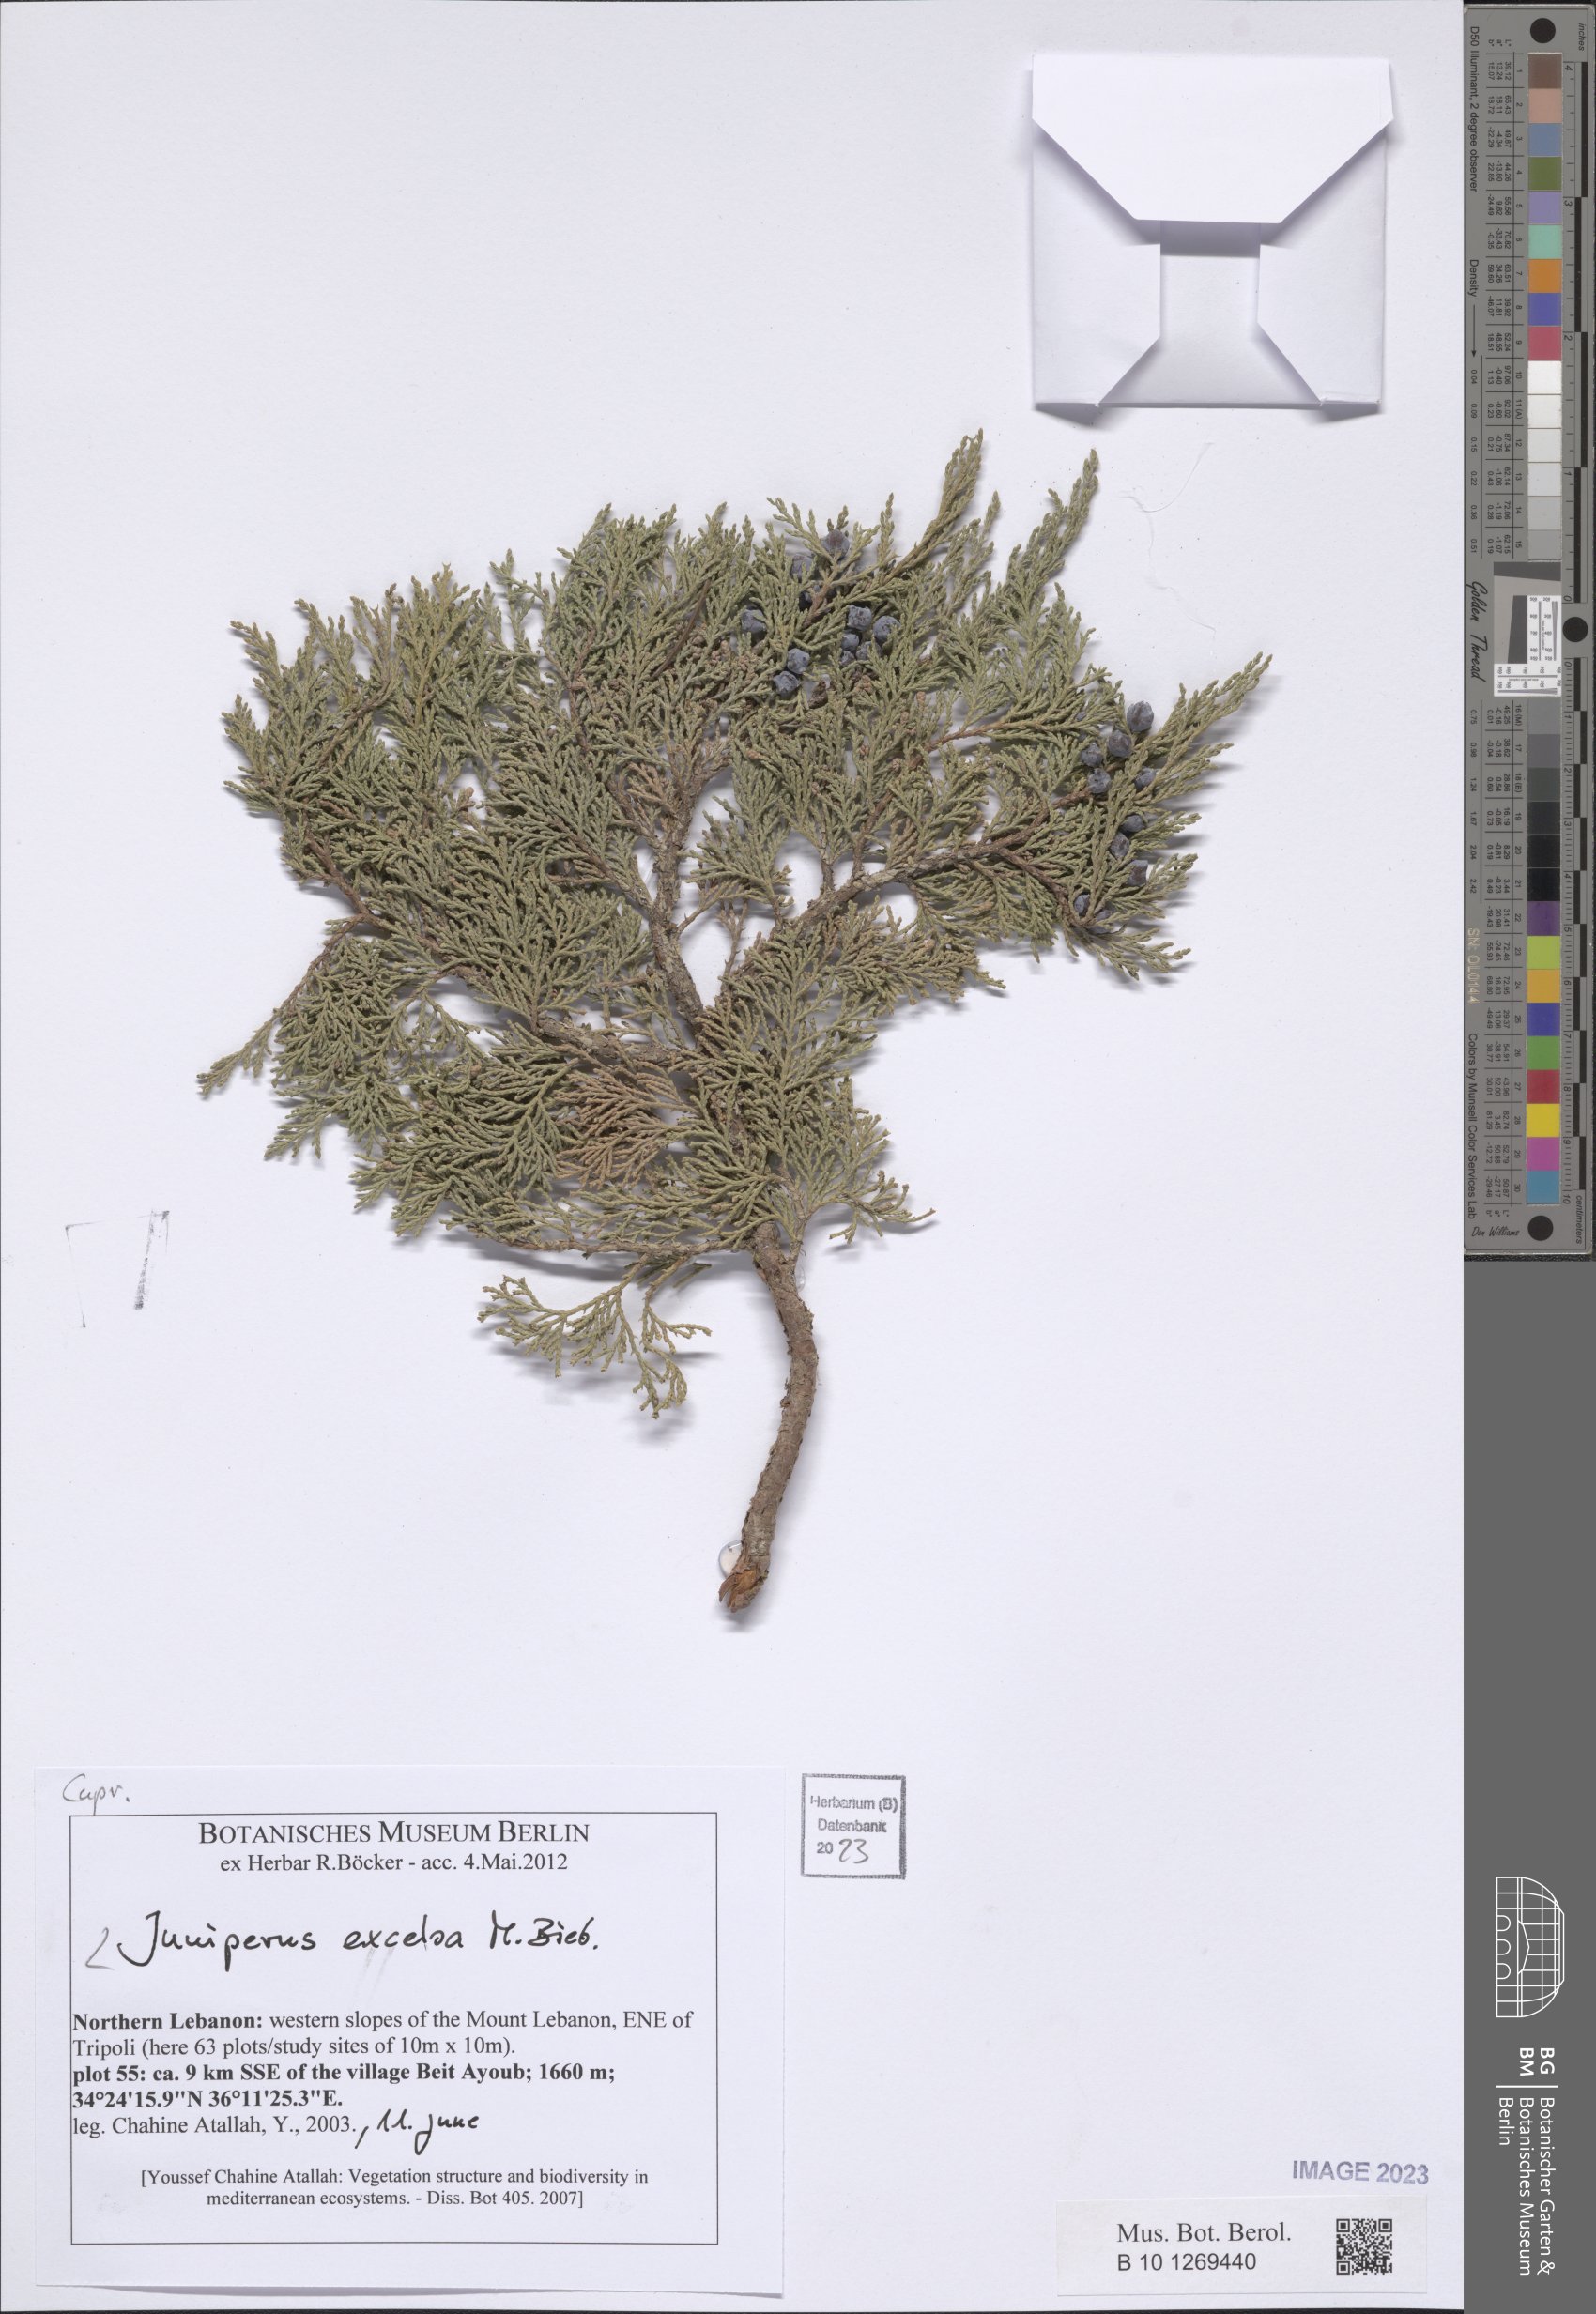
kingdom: Plantae
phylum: Tracheophyta
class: Pinopsida
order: Pinales
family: Cupressaceae
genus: Juniperus
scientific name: Juniperus excelsa
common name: Crimean juniper
